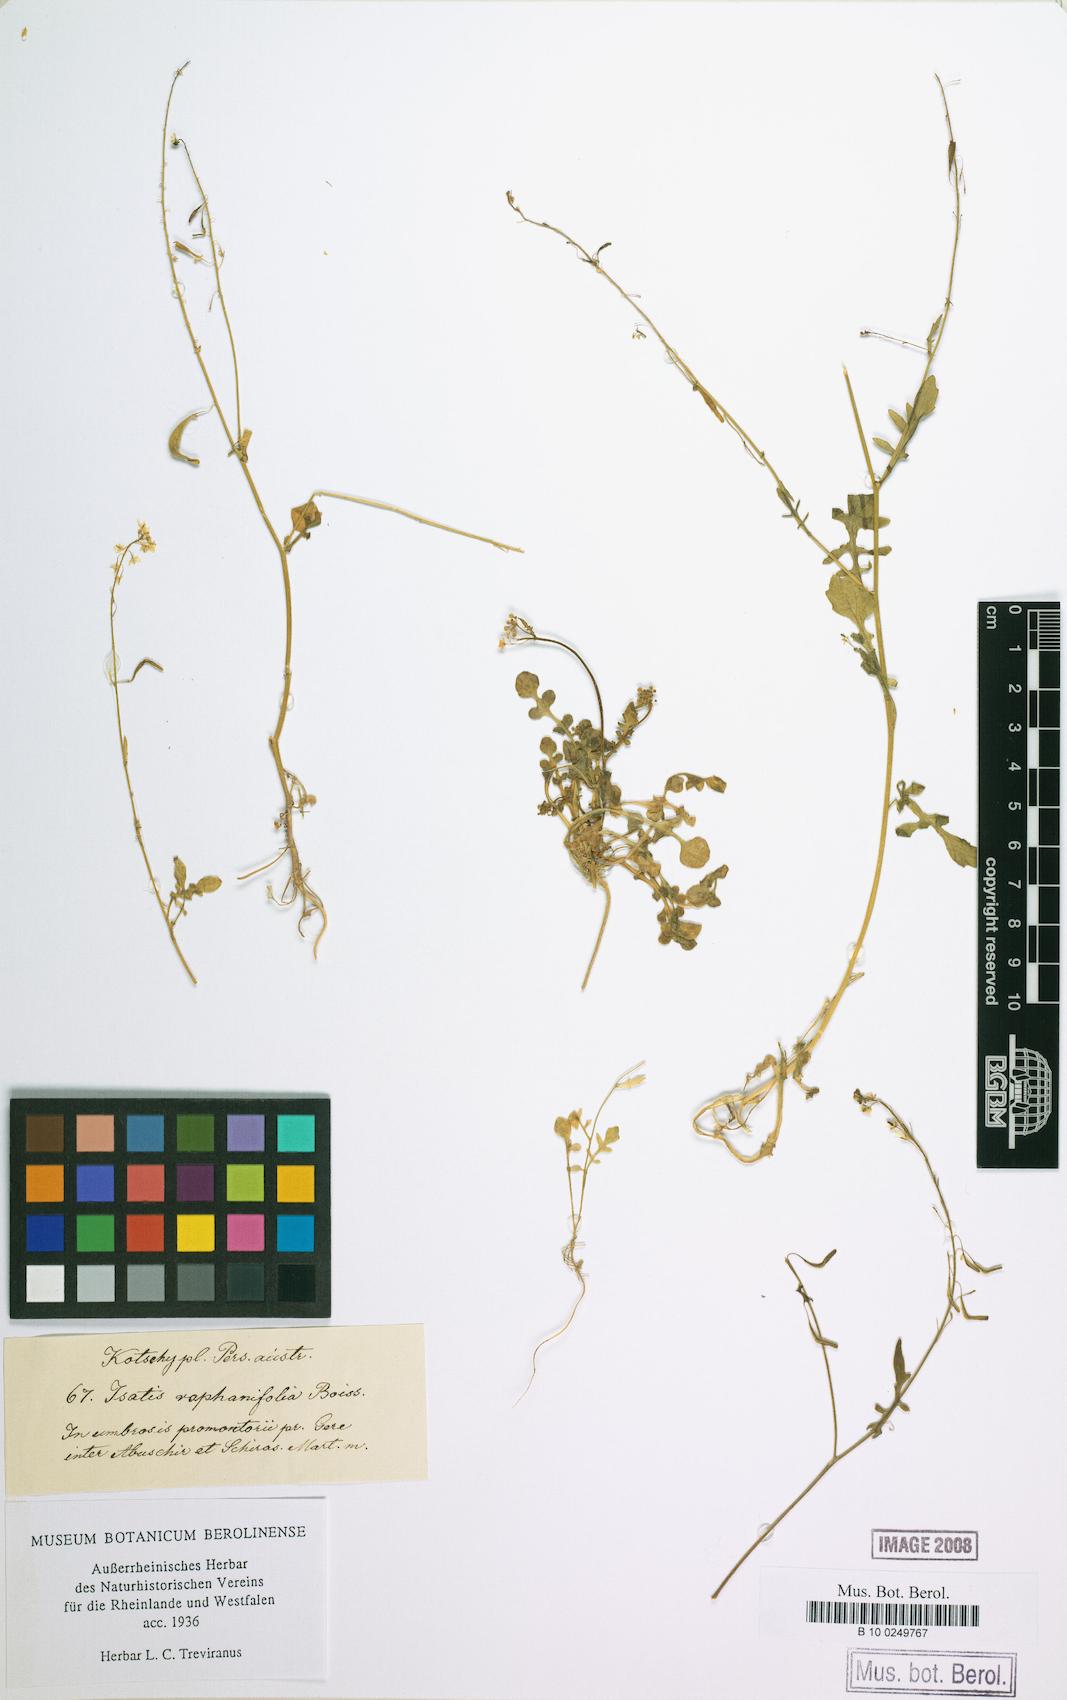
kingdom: Plantae
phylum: Tracheophyta
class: Magnoliopsida
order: Brassicales
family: Brassicaceae
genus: Isatis
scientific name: Isatis raphanifolia
